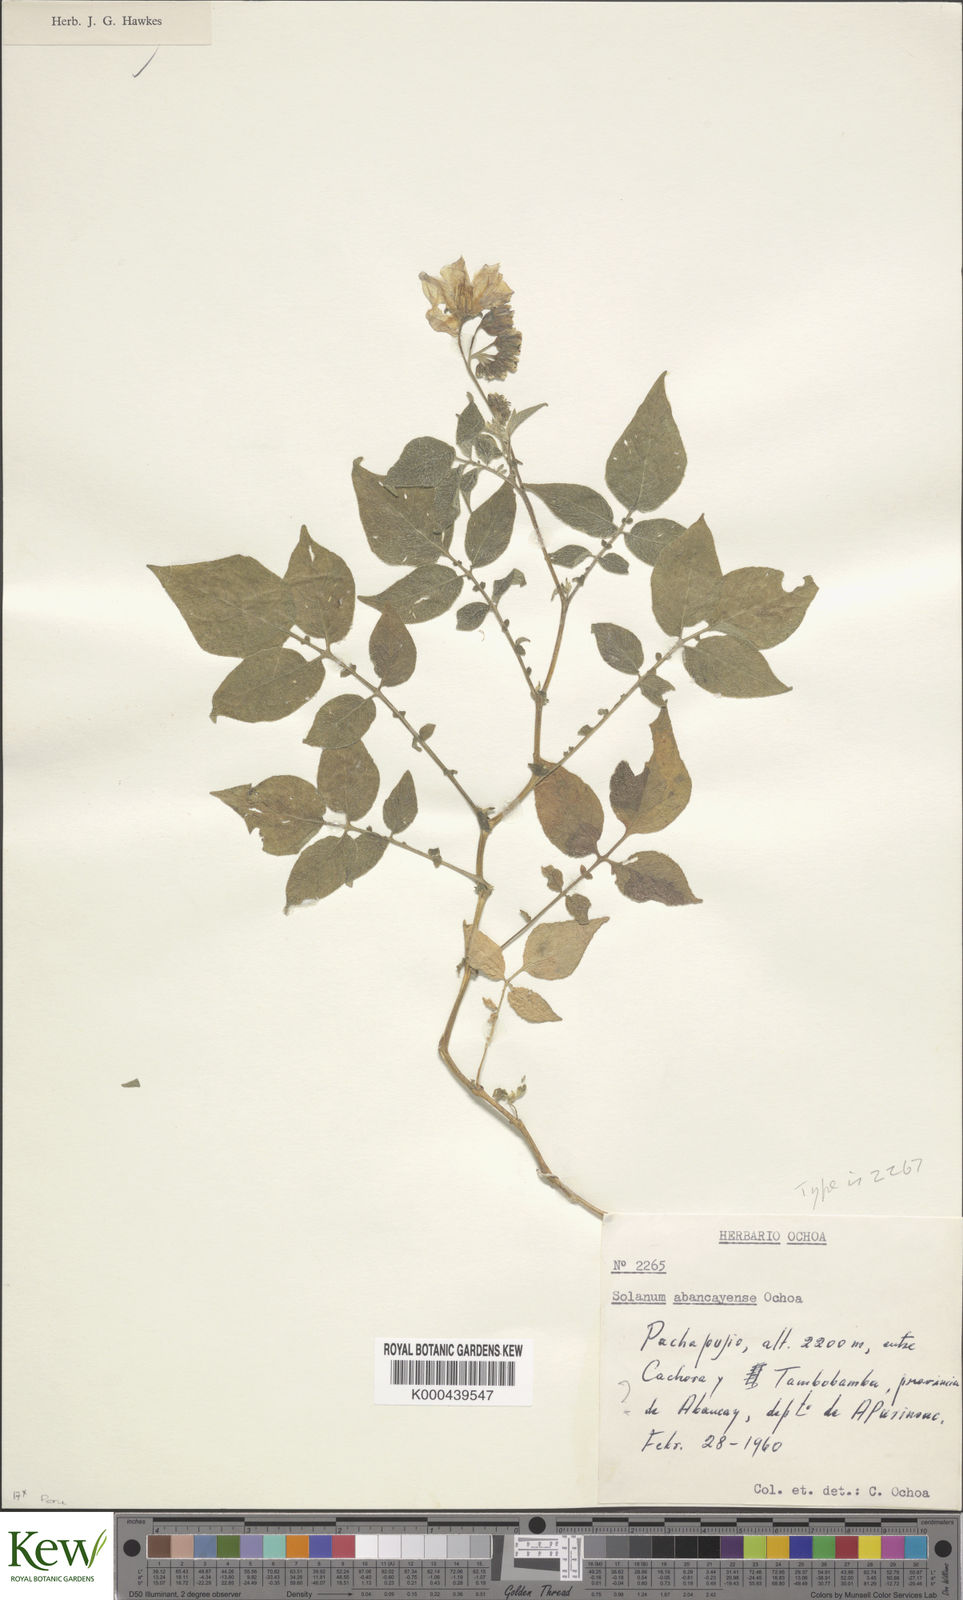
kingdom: Plantae
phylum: Tracheophyta
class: Magnoliopsida
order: Solanales
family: Solanaceae
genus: Solanum
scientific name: Solanum candolleanum
